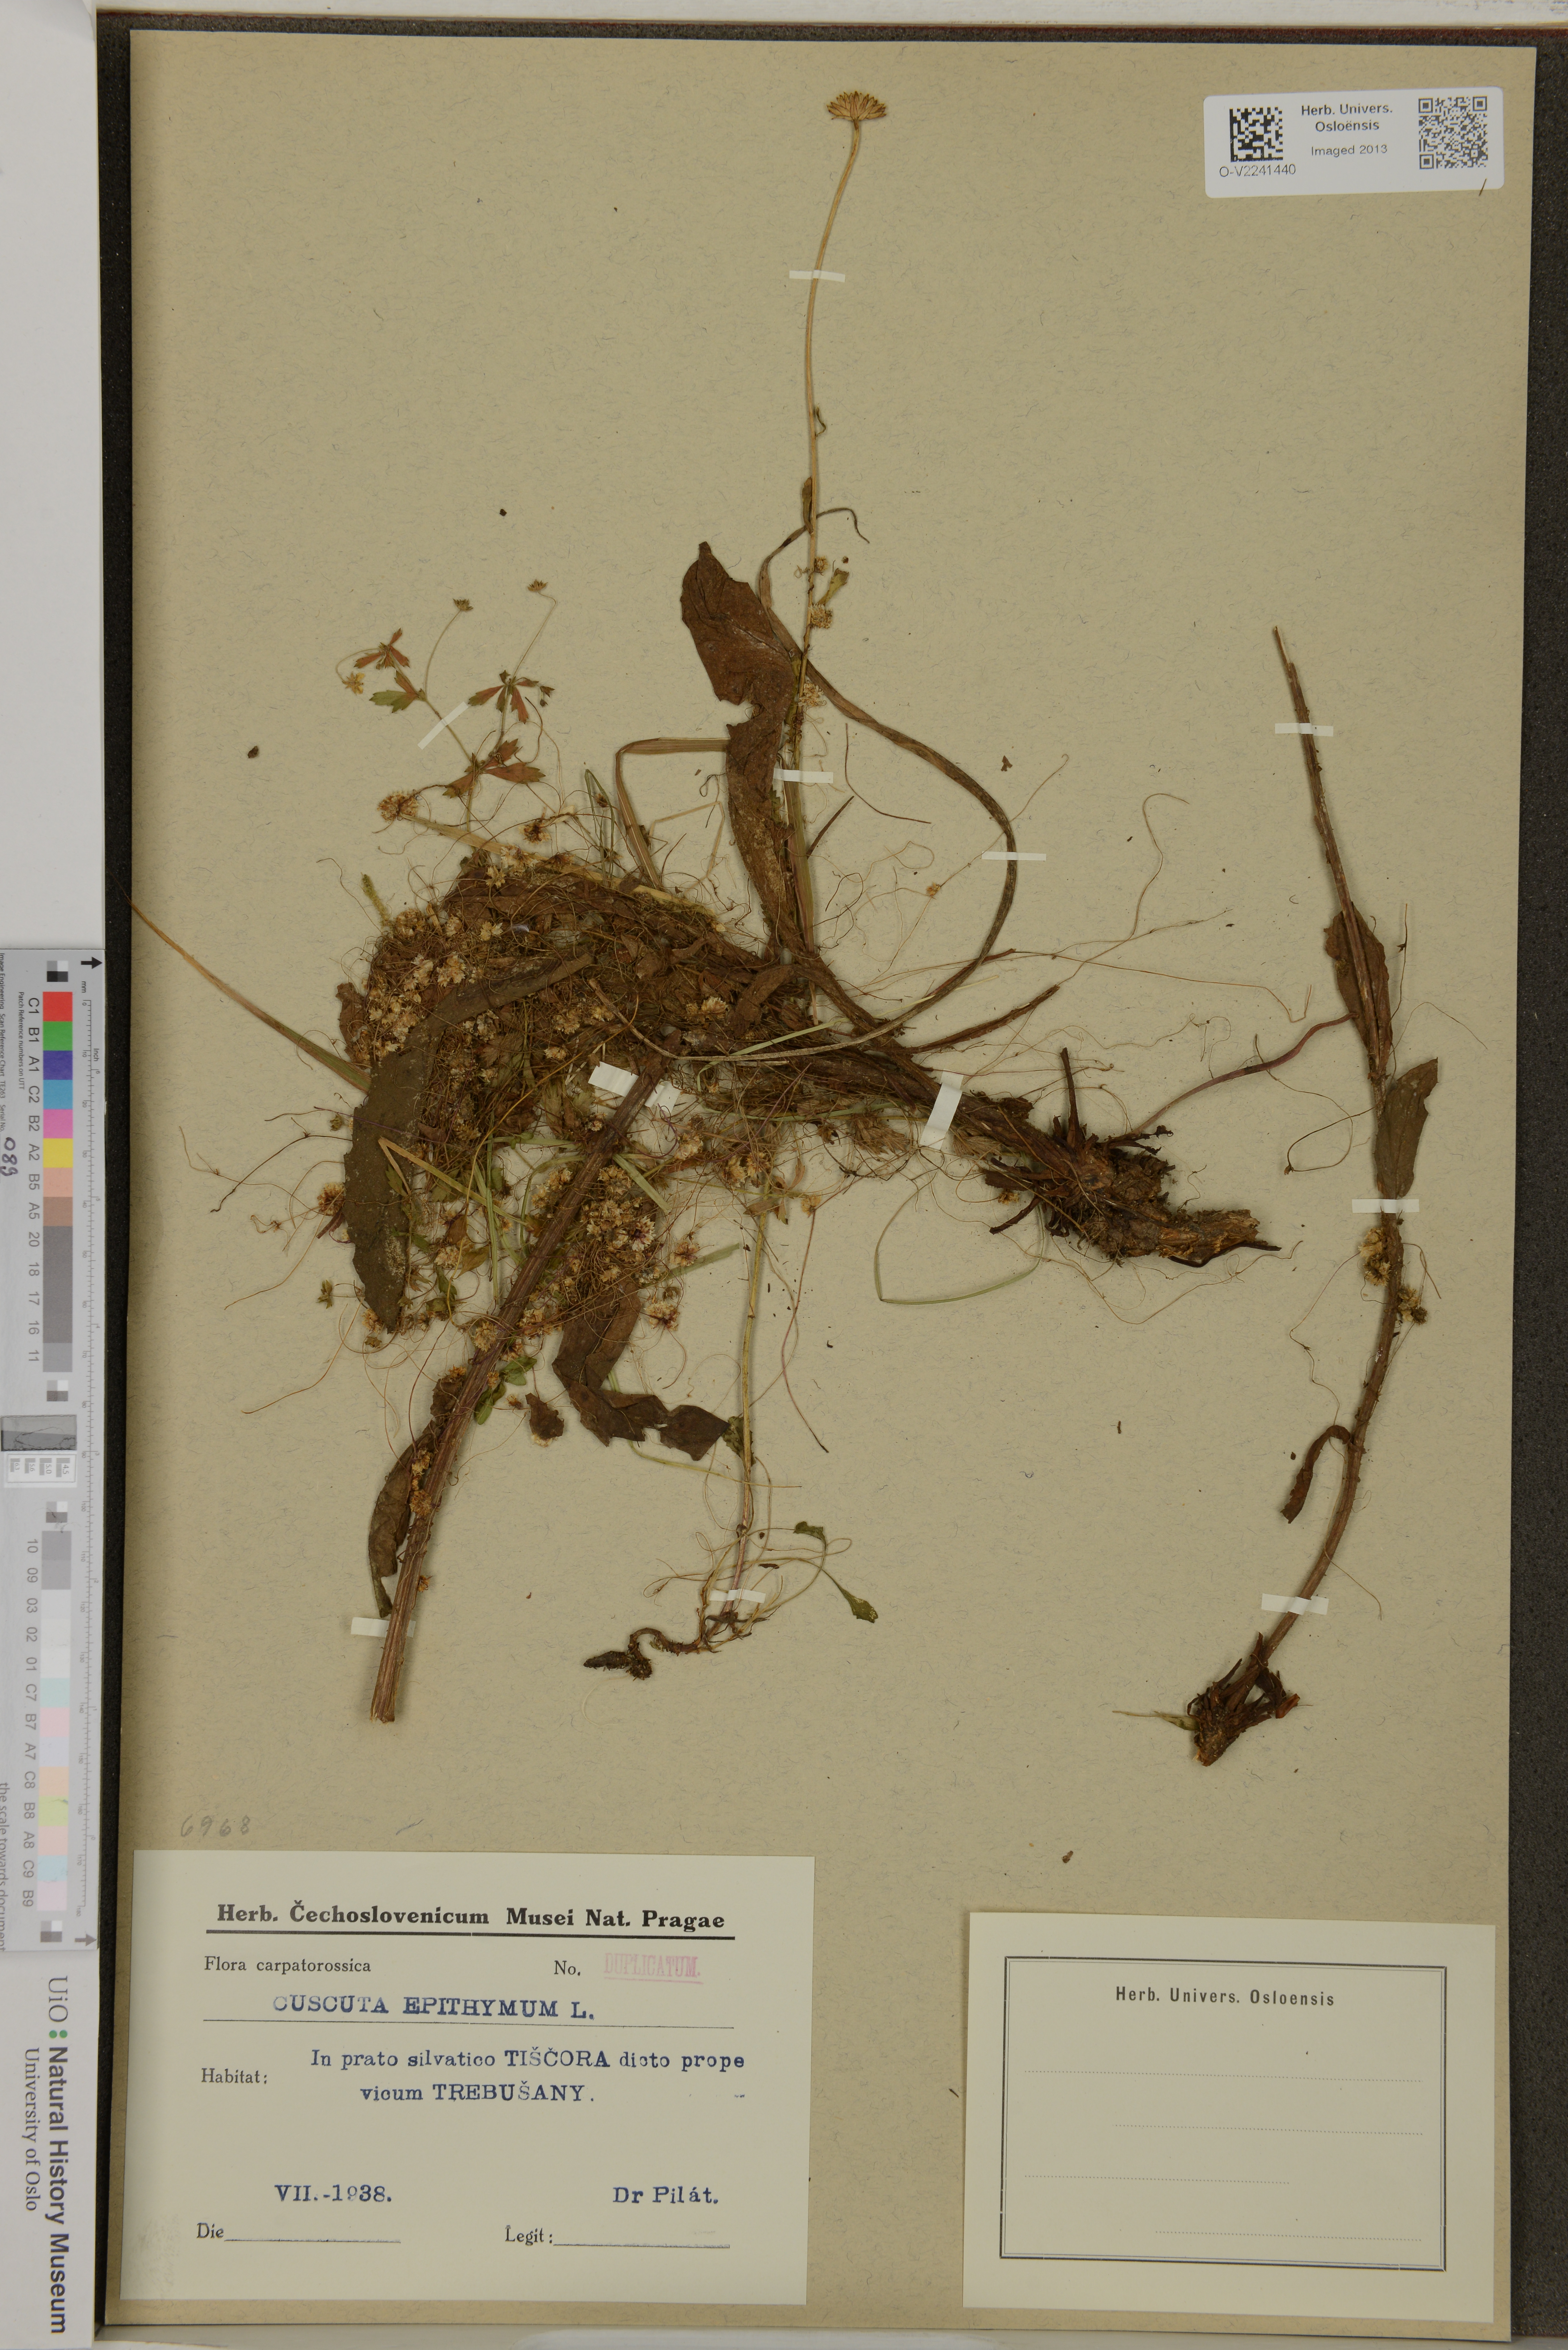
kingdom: Plantae
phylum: Tracheophyta
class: Magnoliopsida
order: Solanales
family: Convolvulaceae
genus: Cuscuta
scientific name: Cuscuta epithymum
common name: Clover dodder
